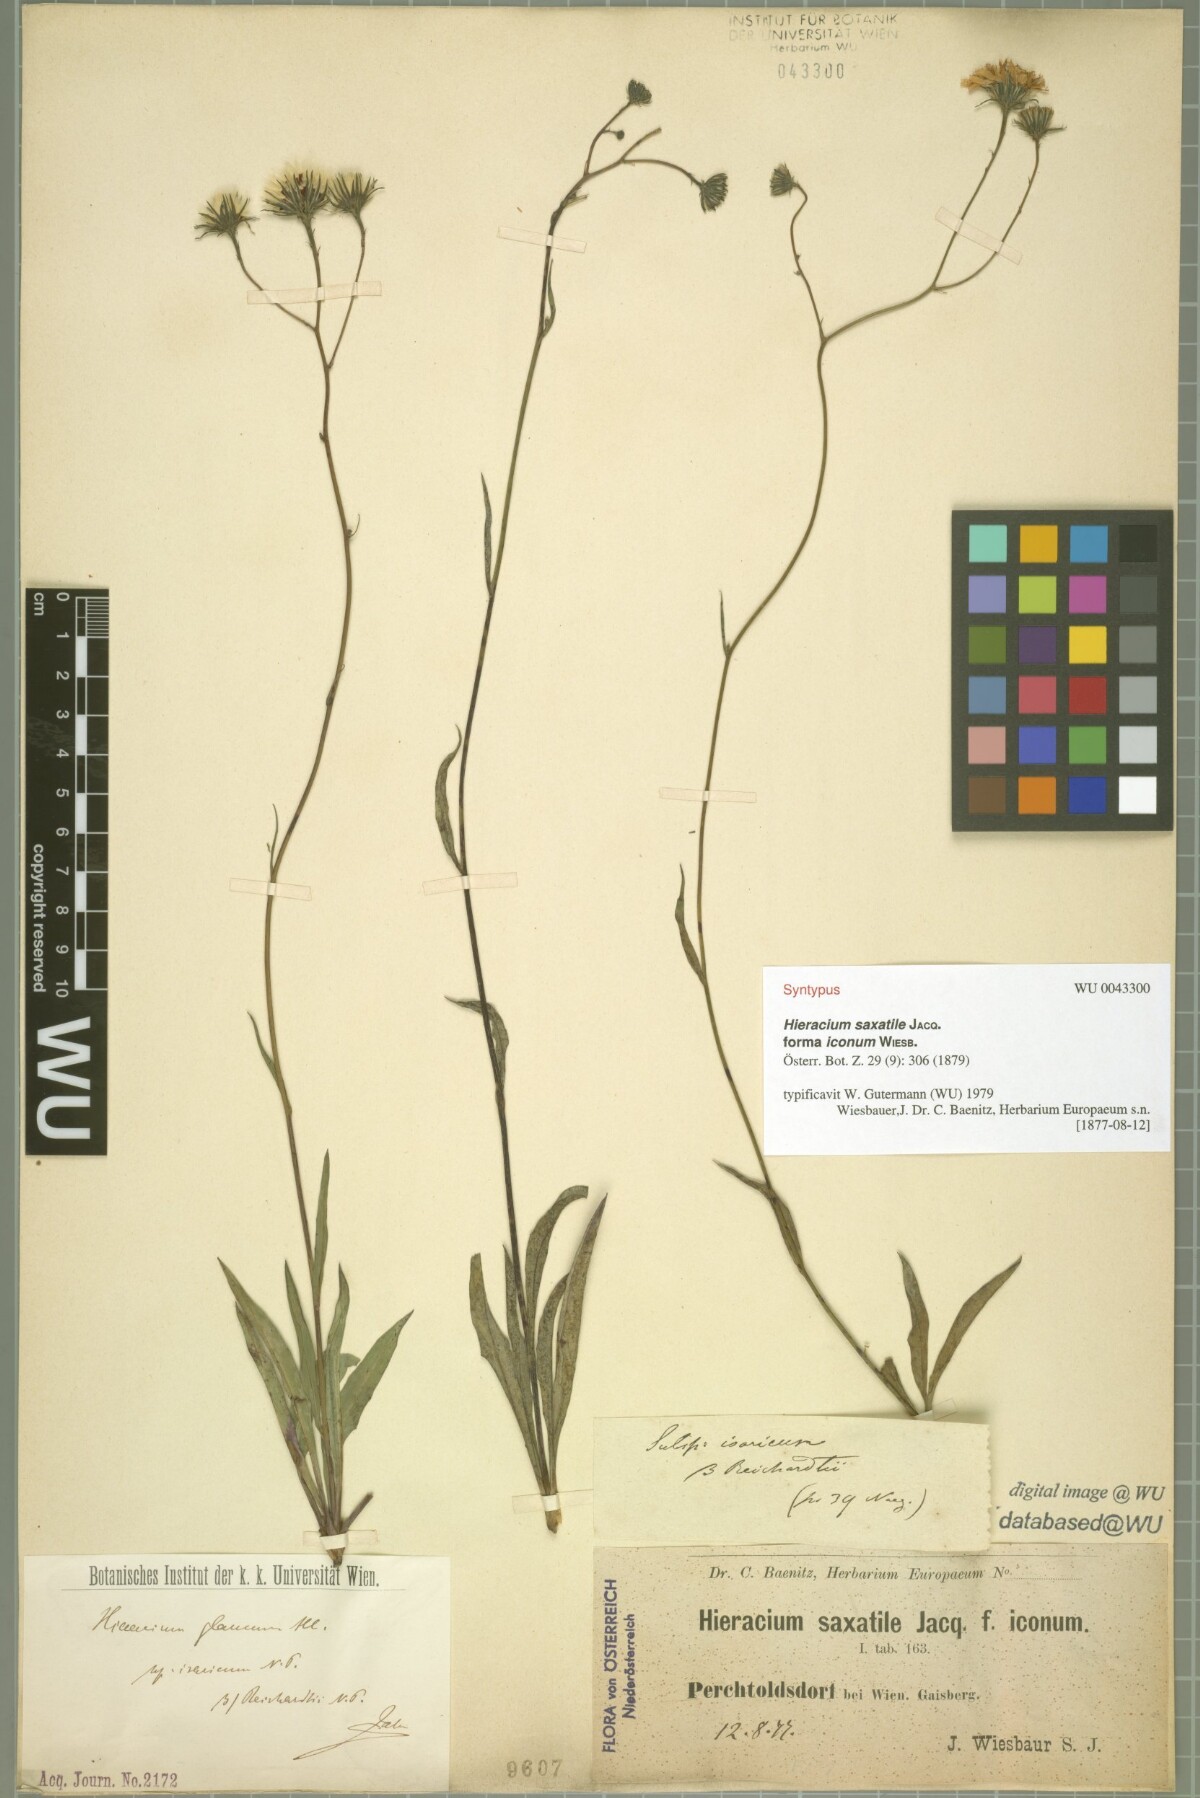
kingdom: Plantae
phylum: Tracheophyta
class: Magnoliopsida
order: Asterales
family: Asteraceae
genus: Hieracium
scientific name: Hieracium saxatile
